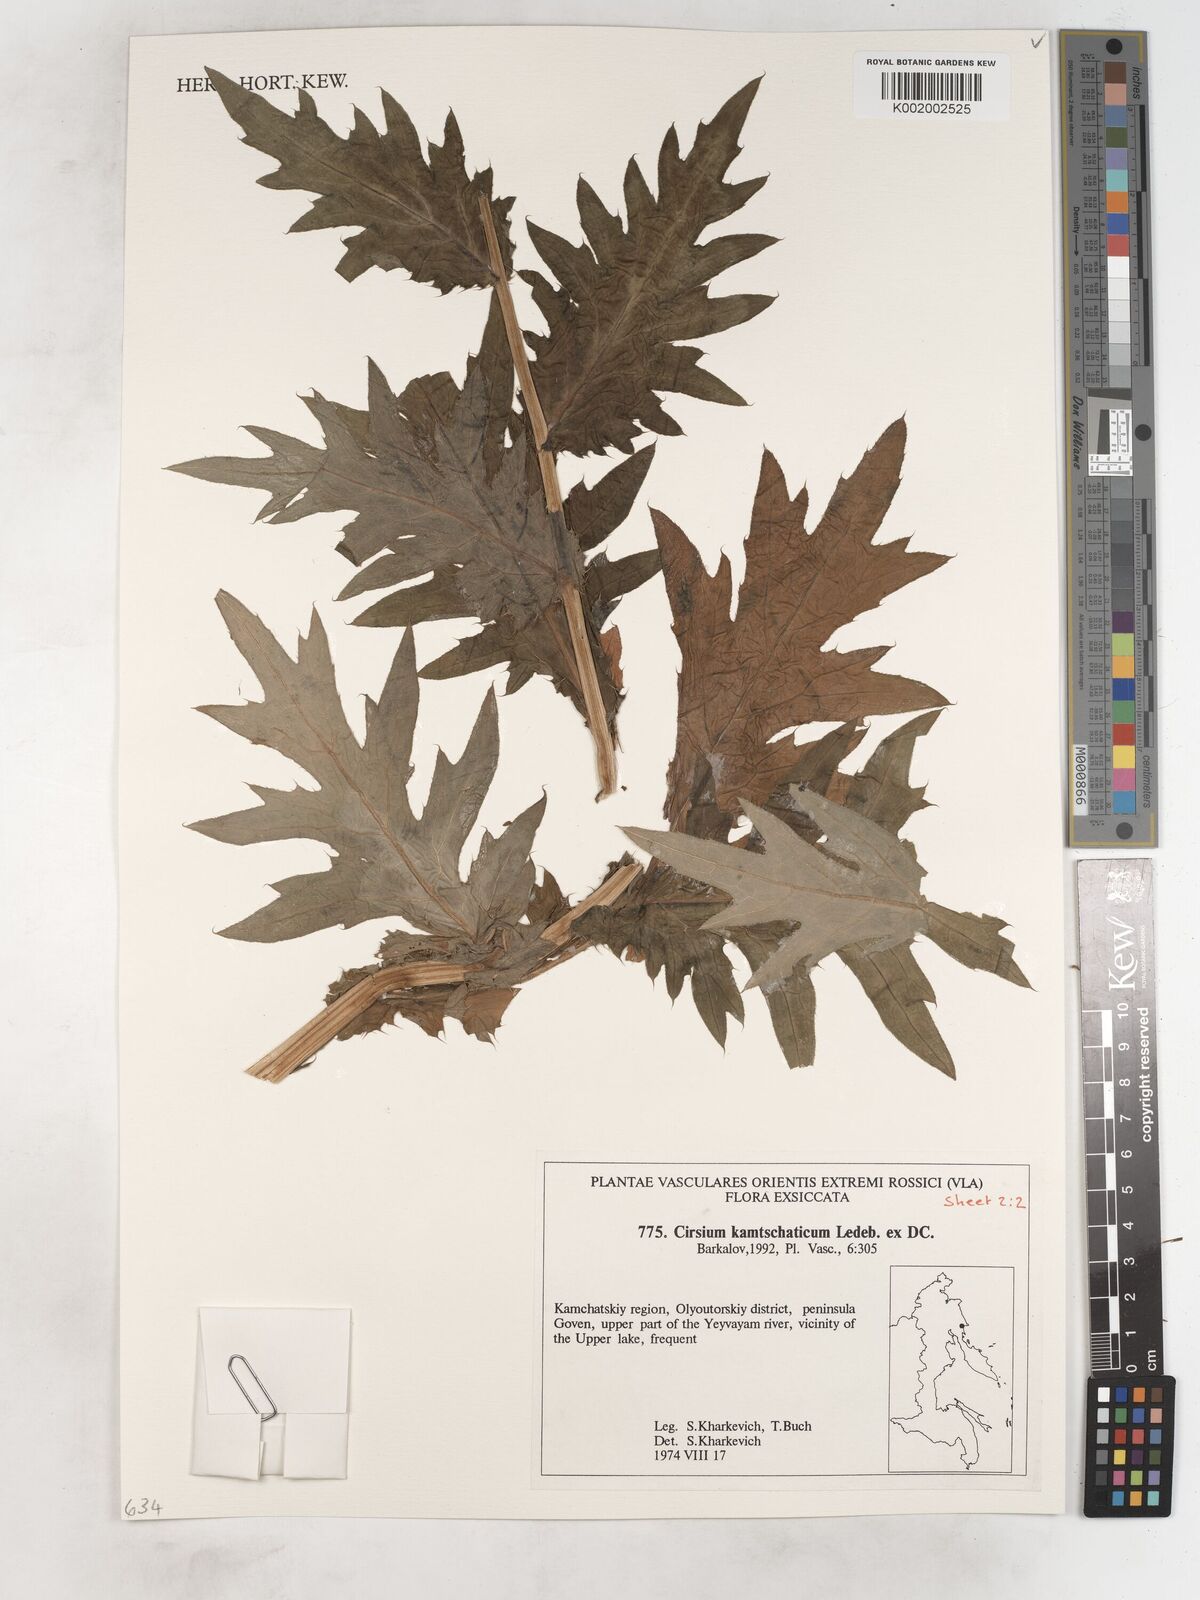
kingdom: Plantae
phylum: Tracheophyta
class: Magnoliopsida
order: Asterales
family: Asteraceae
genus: Cirsium
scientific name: Cirsium kamtschaticum
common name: Kamchatka thistle
